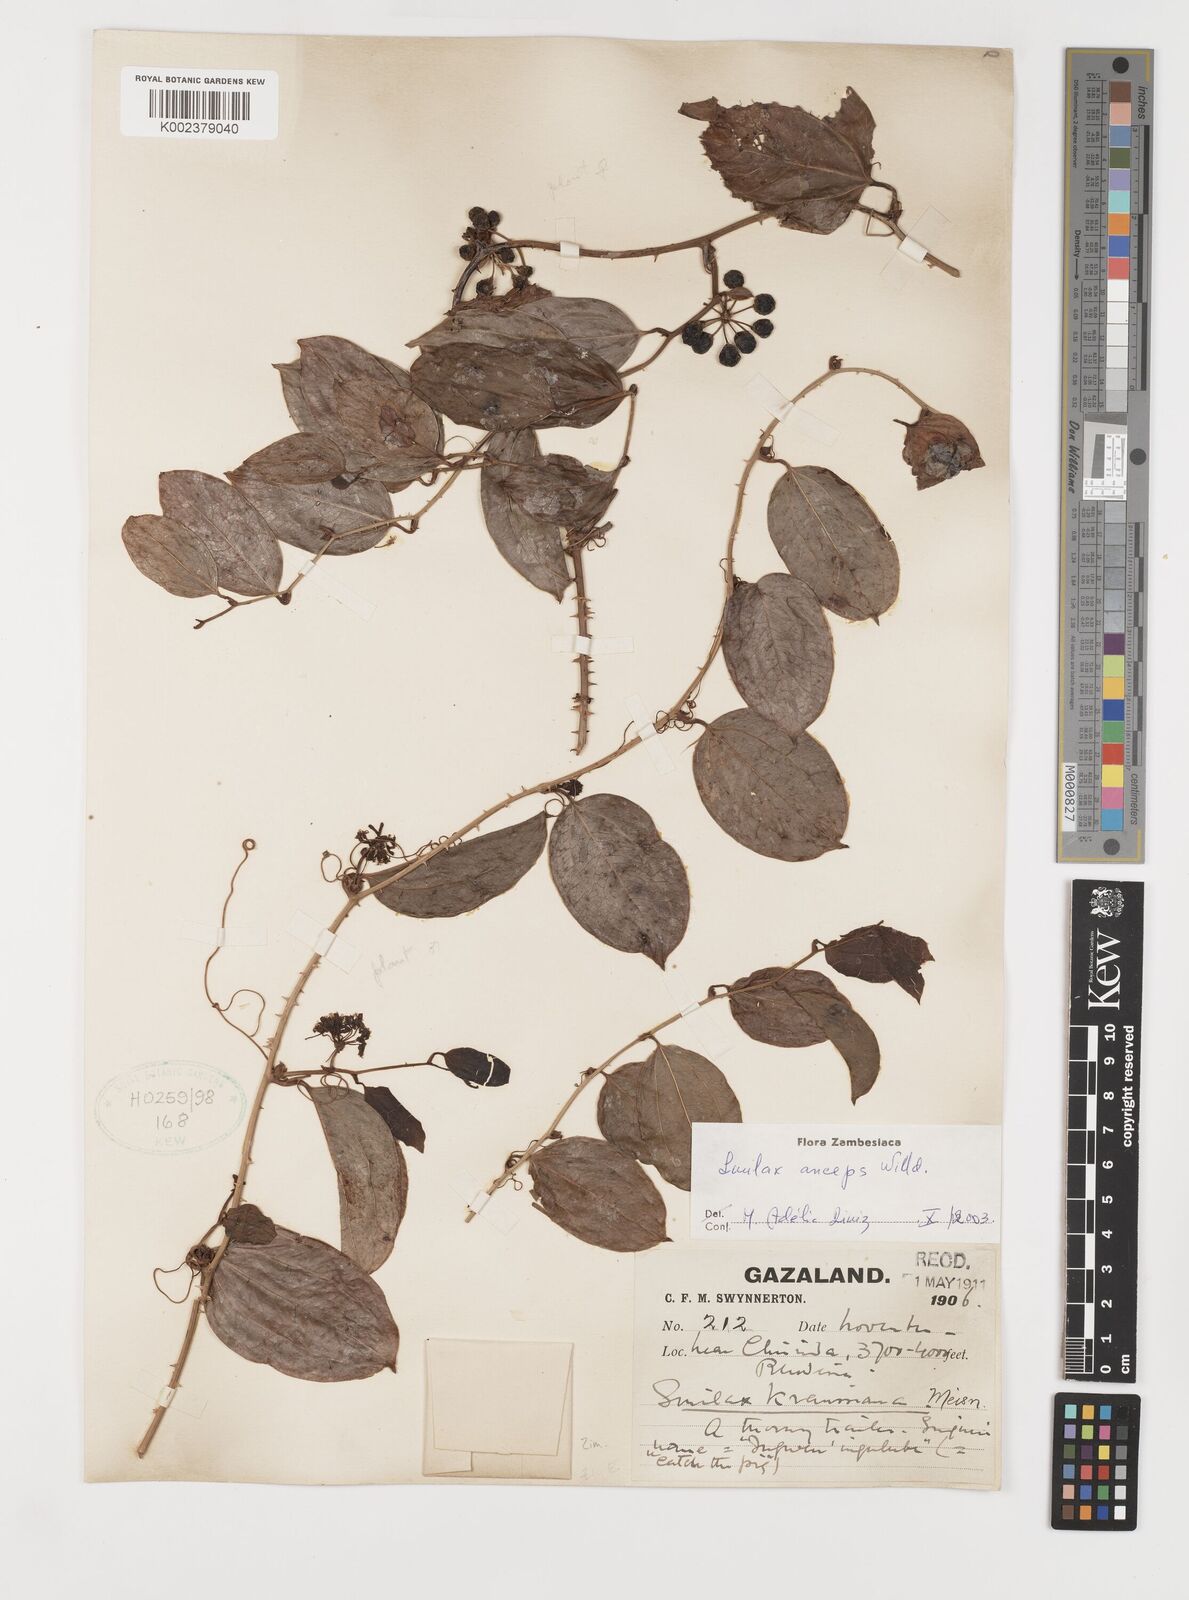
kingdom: Plantae
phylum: Tracheophyta
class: Liliopsida
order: Liliales
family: Smilacaceae
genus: Smilax
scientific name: Smilax anceps
